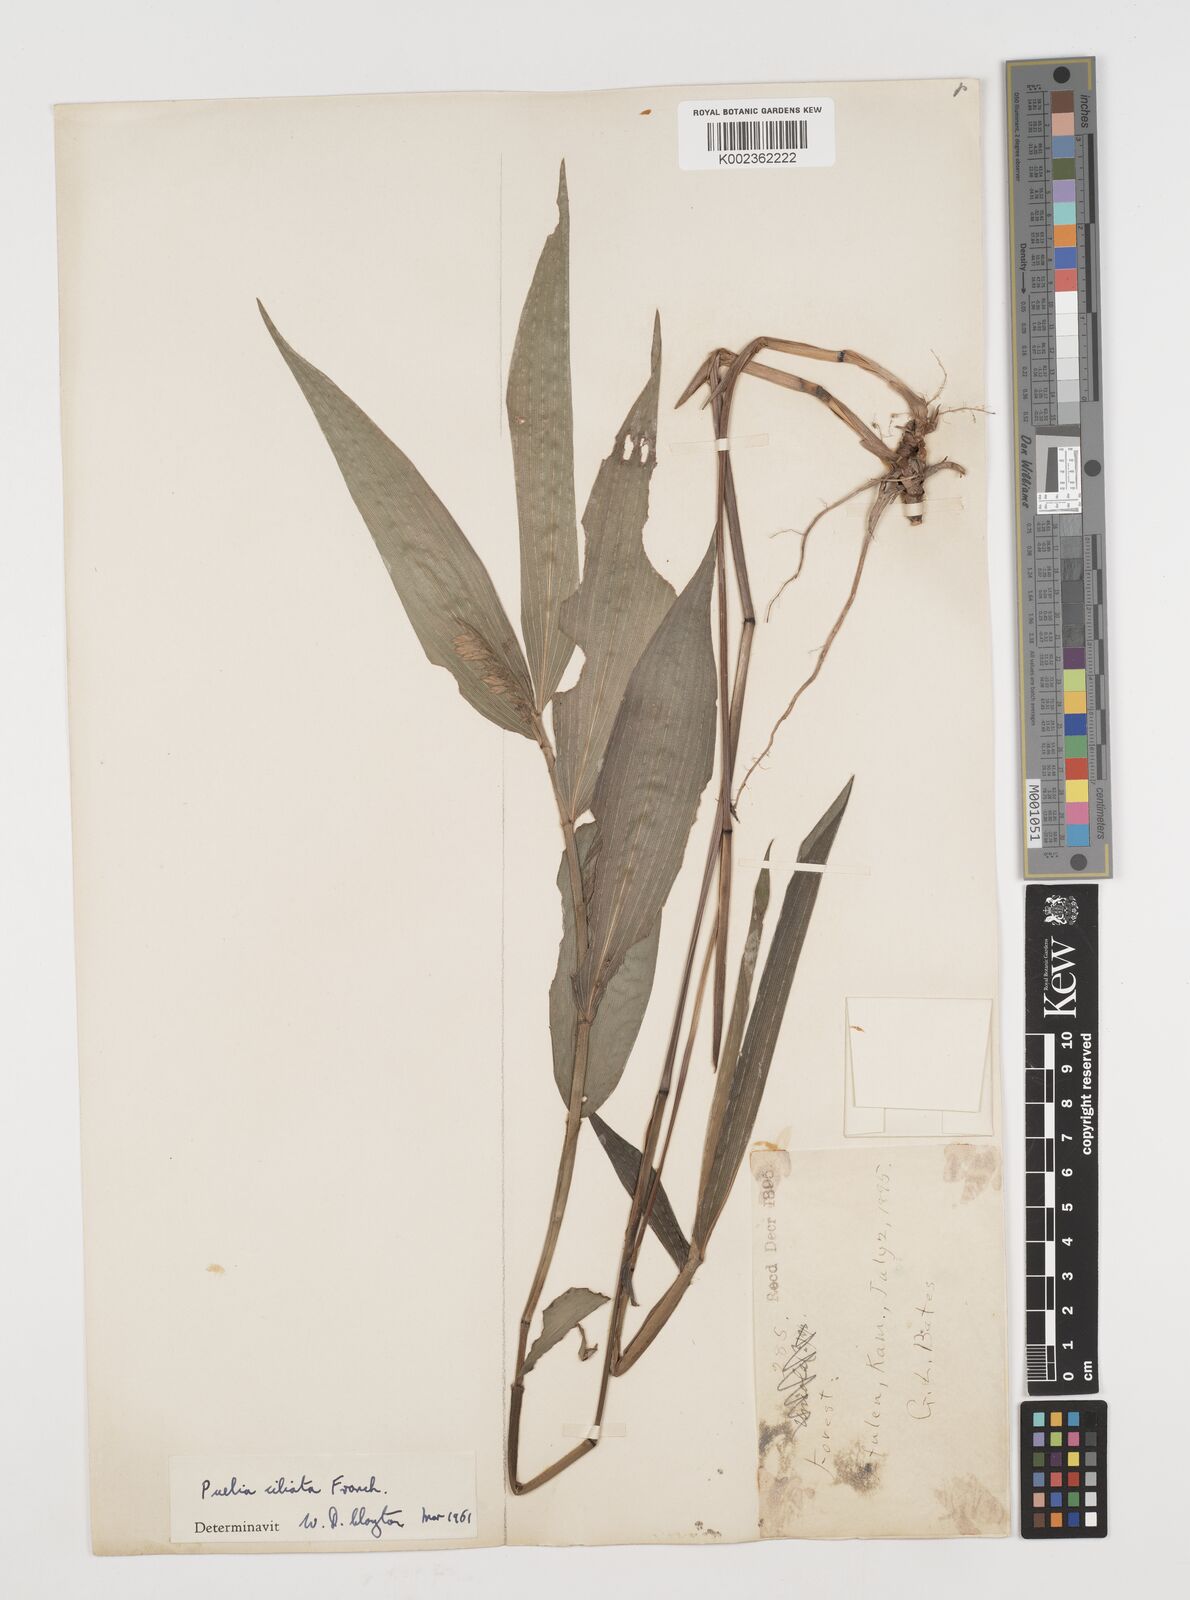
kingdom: Plantae
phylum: Tracheophyta
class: Liliopsida
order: Poales
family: Poaceae
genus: Puelia
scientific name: Puelia ciliata
